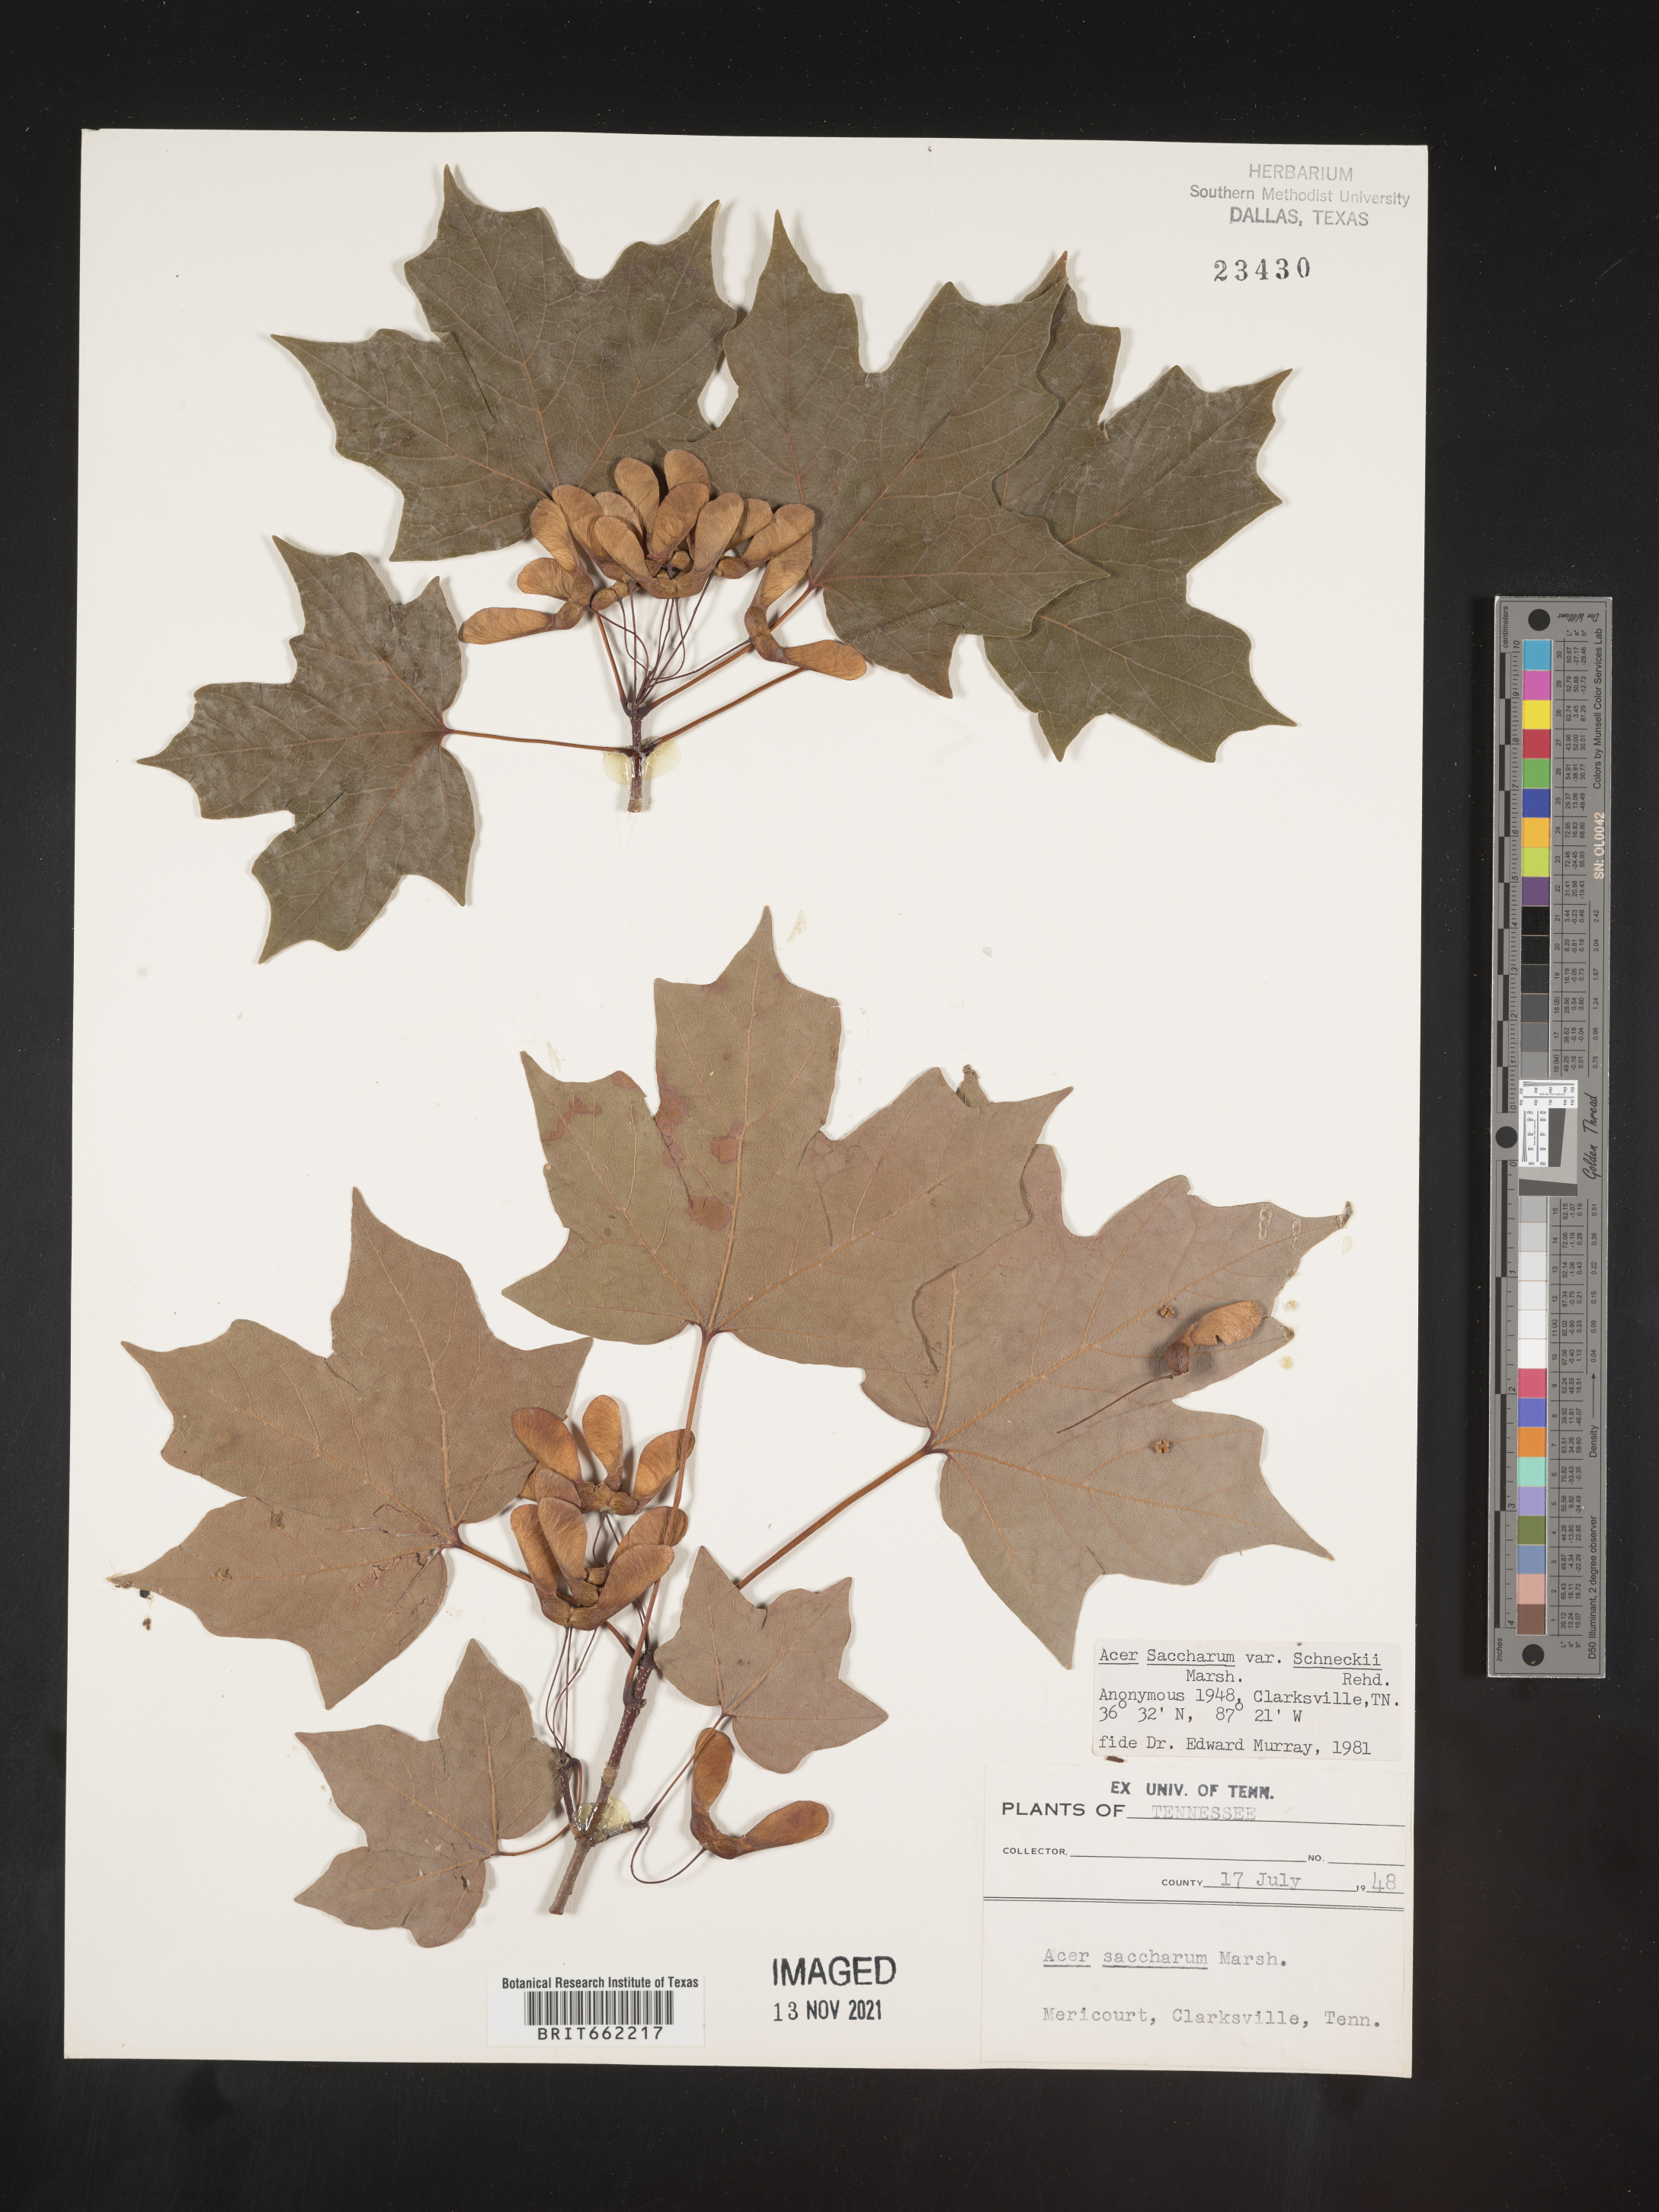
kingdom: Plantae
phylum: Tracheophyta
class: Magnoliopsida
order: Sapindales
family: Sapindaceae
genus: Acer
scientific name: Acer saccharum
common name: Sugar maple
